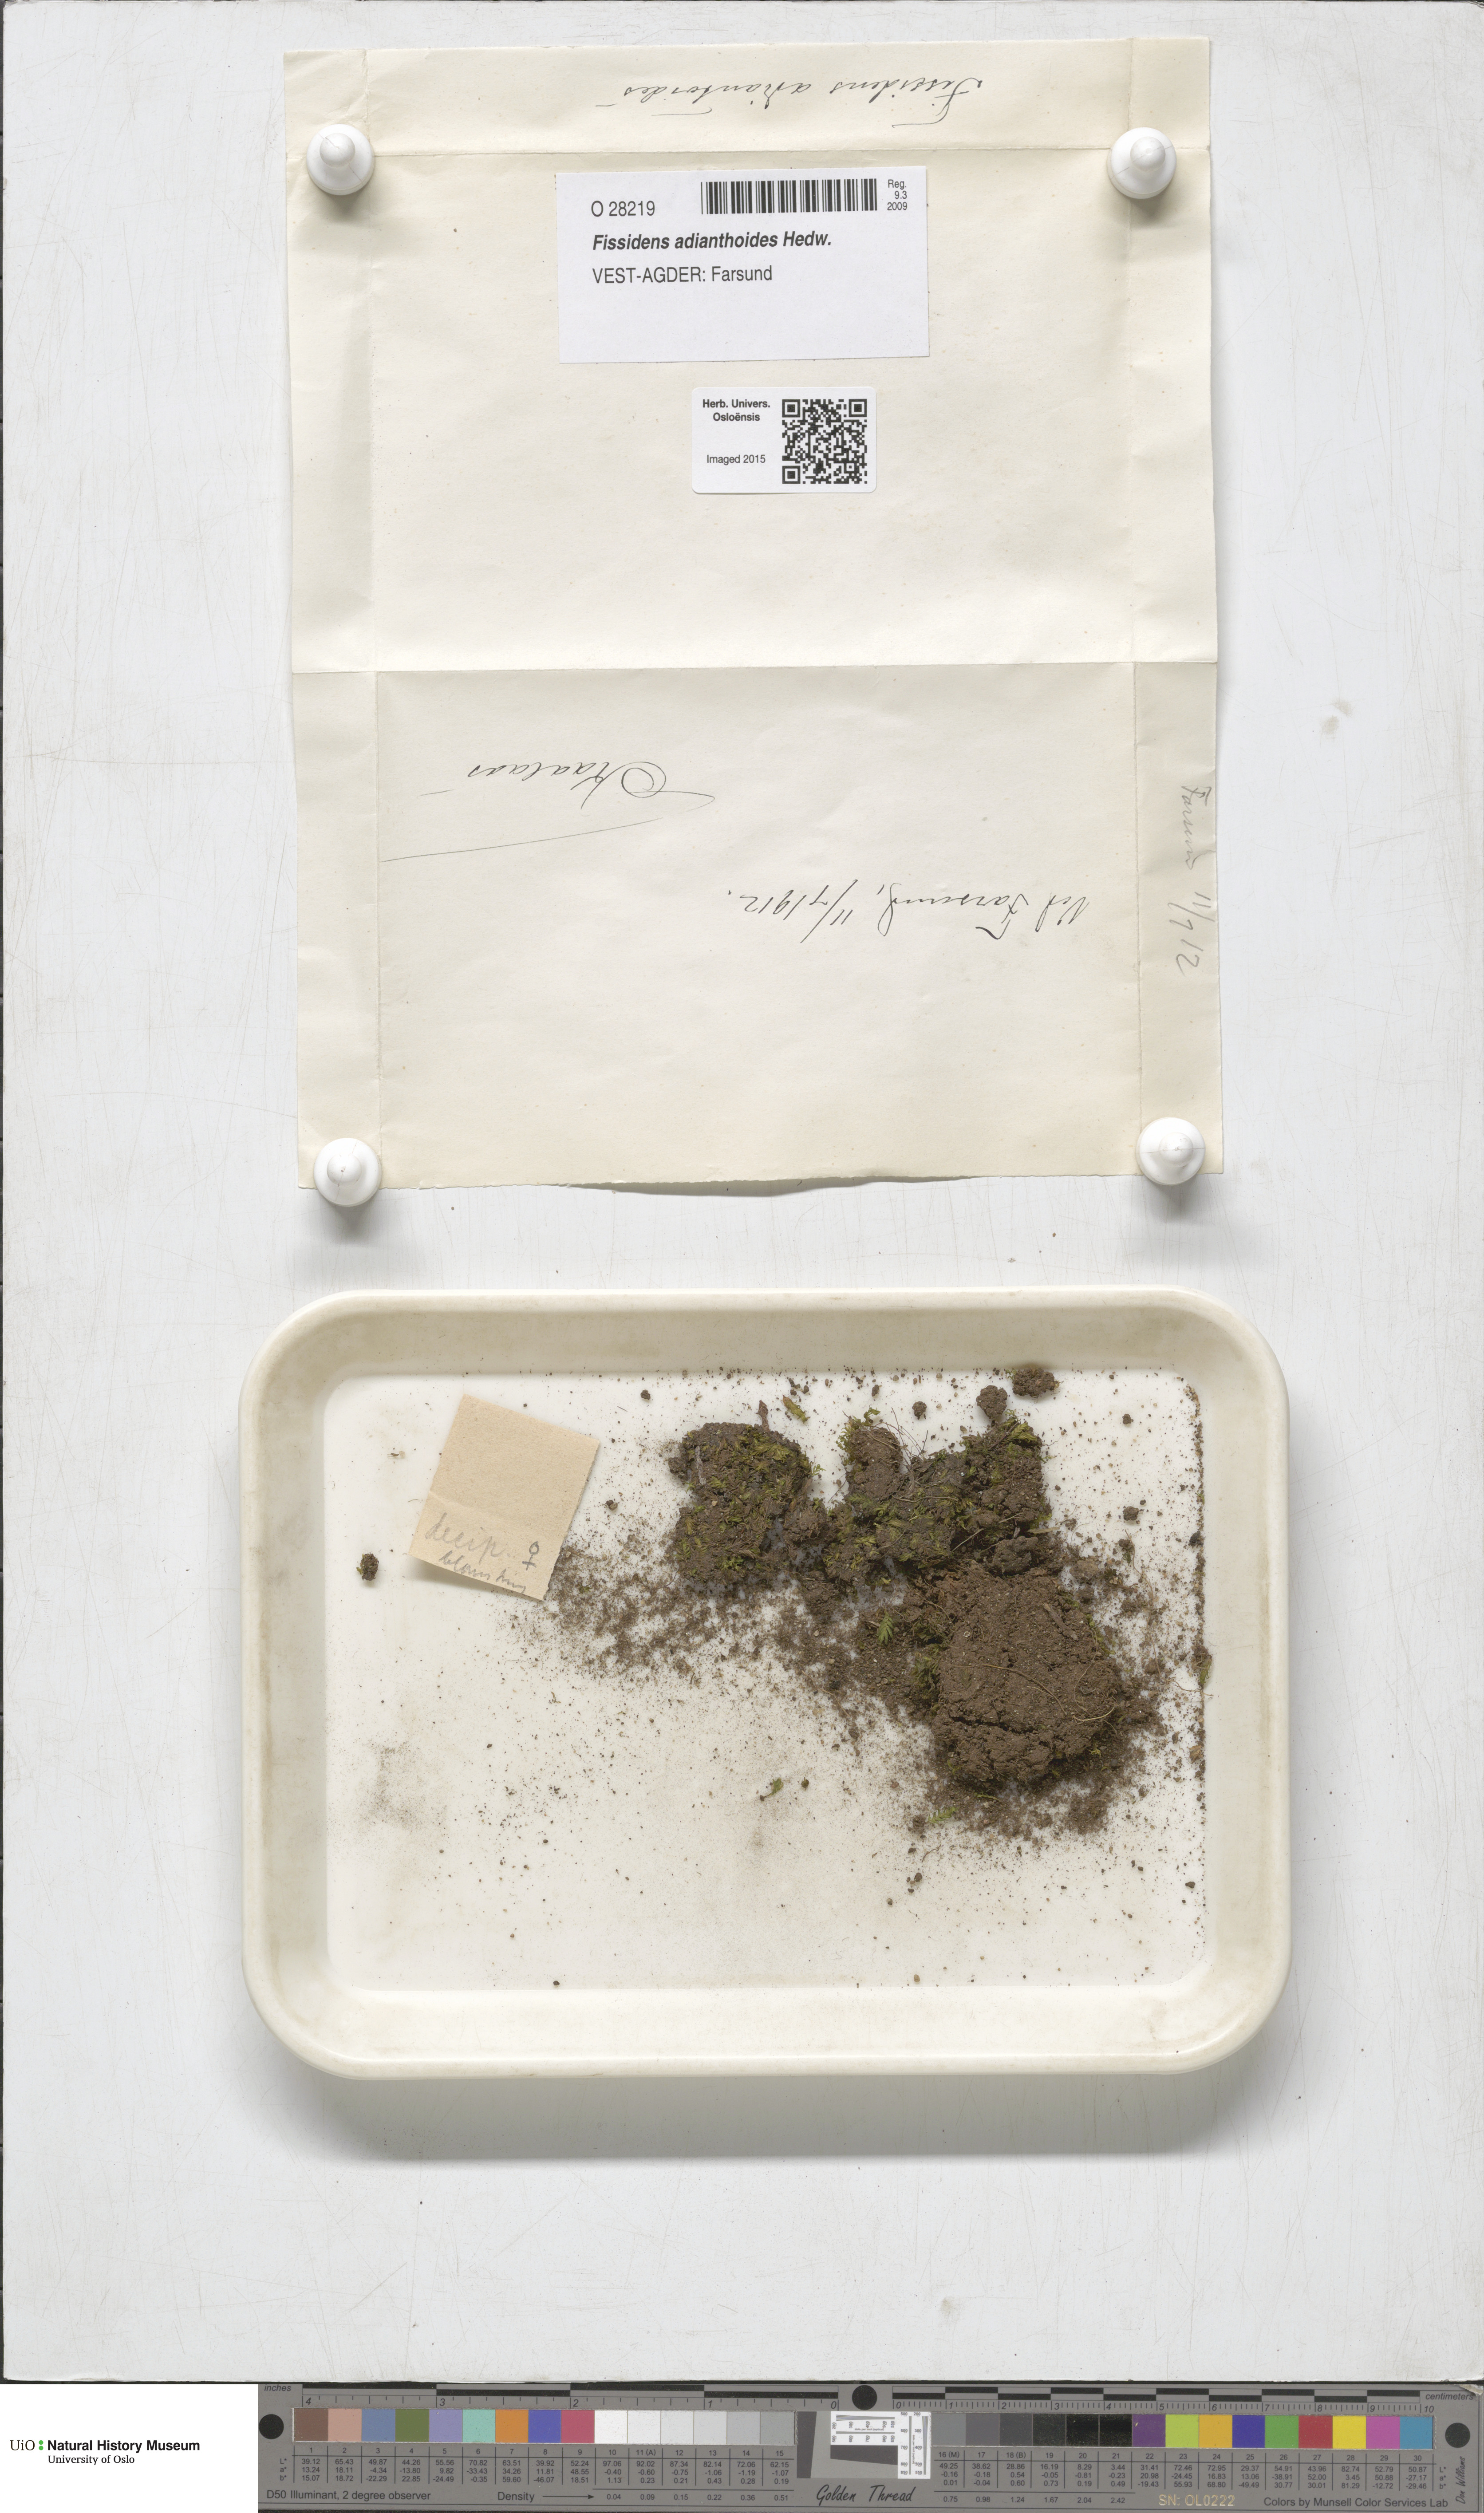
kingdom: Plantae
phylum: Bryophyta
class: Bryopsida
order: Dicranales
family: Fissidentaceae
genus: Fissidens
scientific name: Fissidens adianthoides
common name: Maidenhair pocket moss
